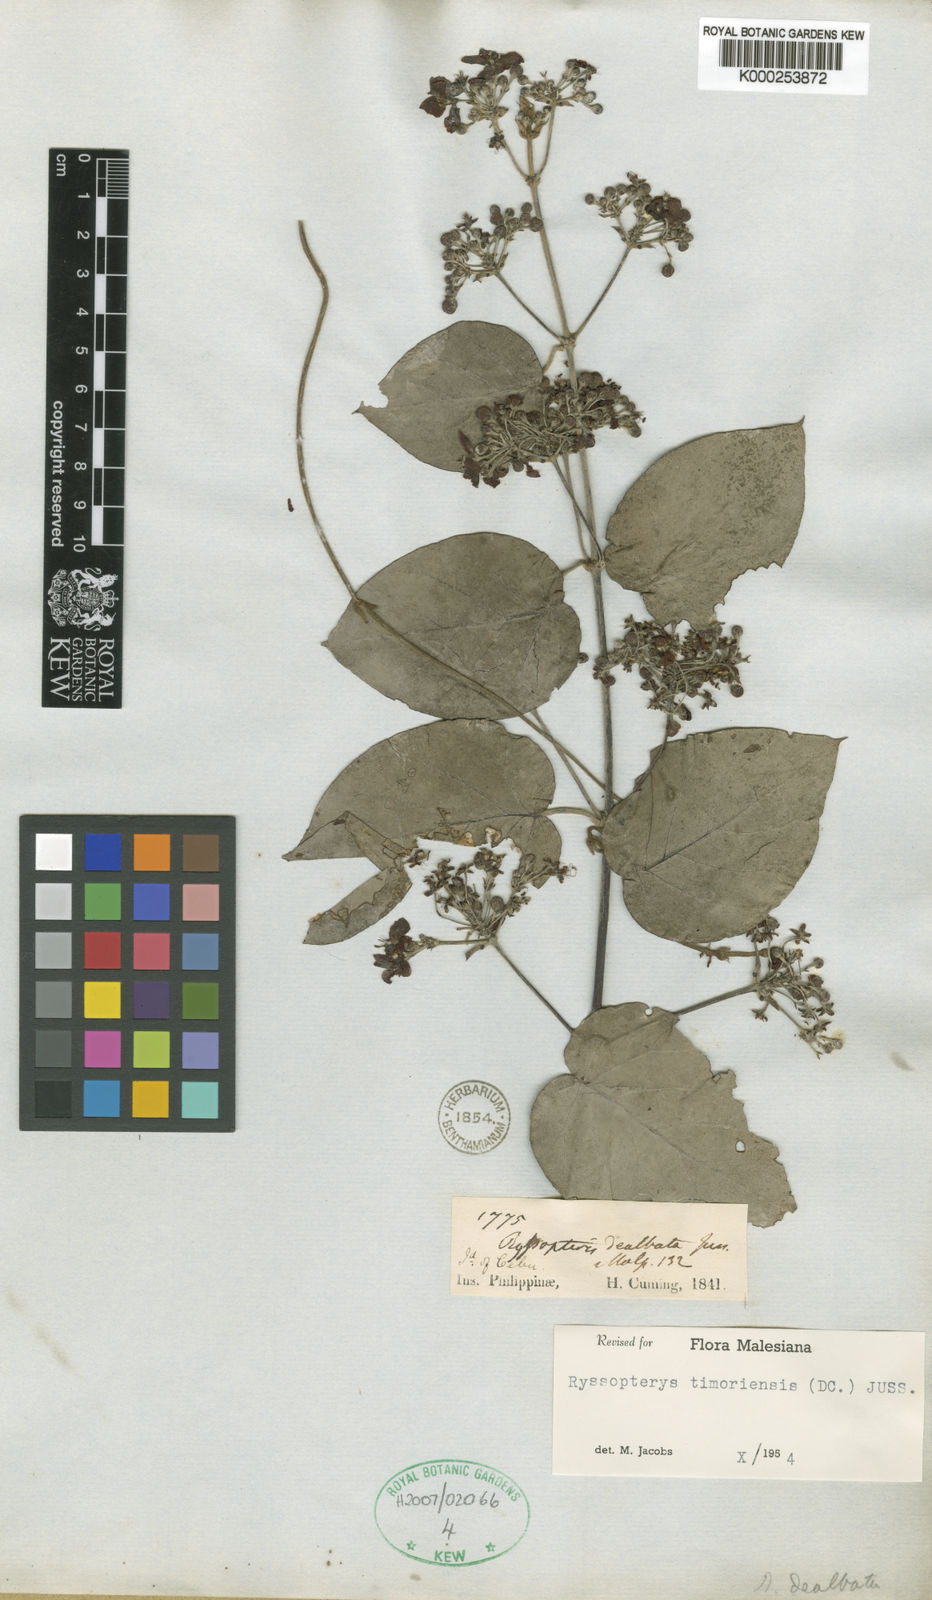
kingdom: Plantae
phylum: Tracheophyta
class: Magnoliopsida
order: Malpighiales
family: Malpighiaceae
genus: Stigmaphyllon
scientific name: Stigmaphyllon dealbatum
